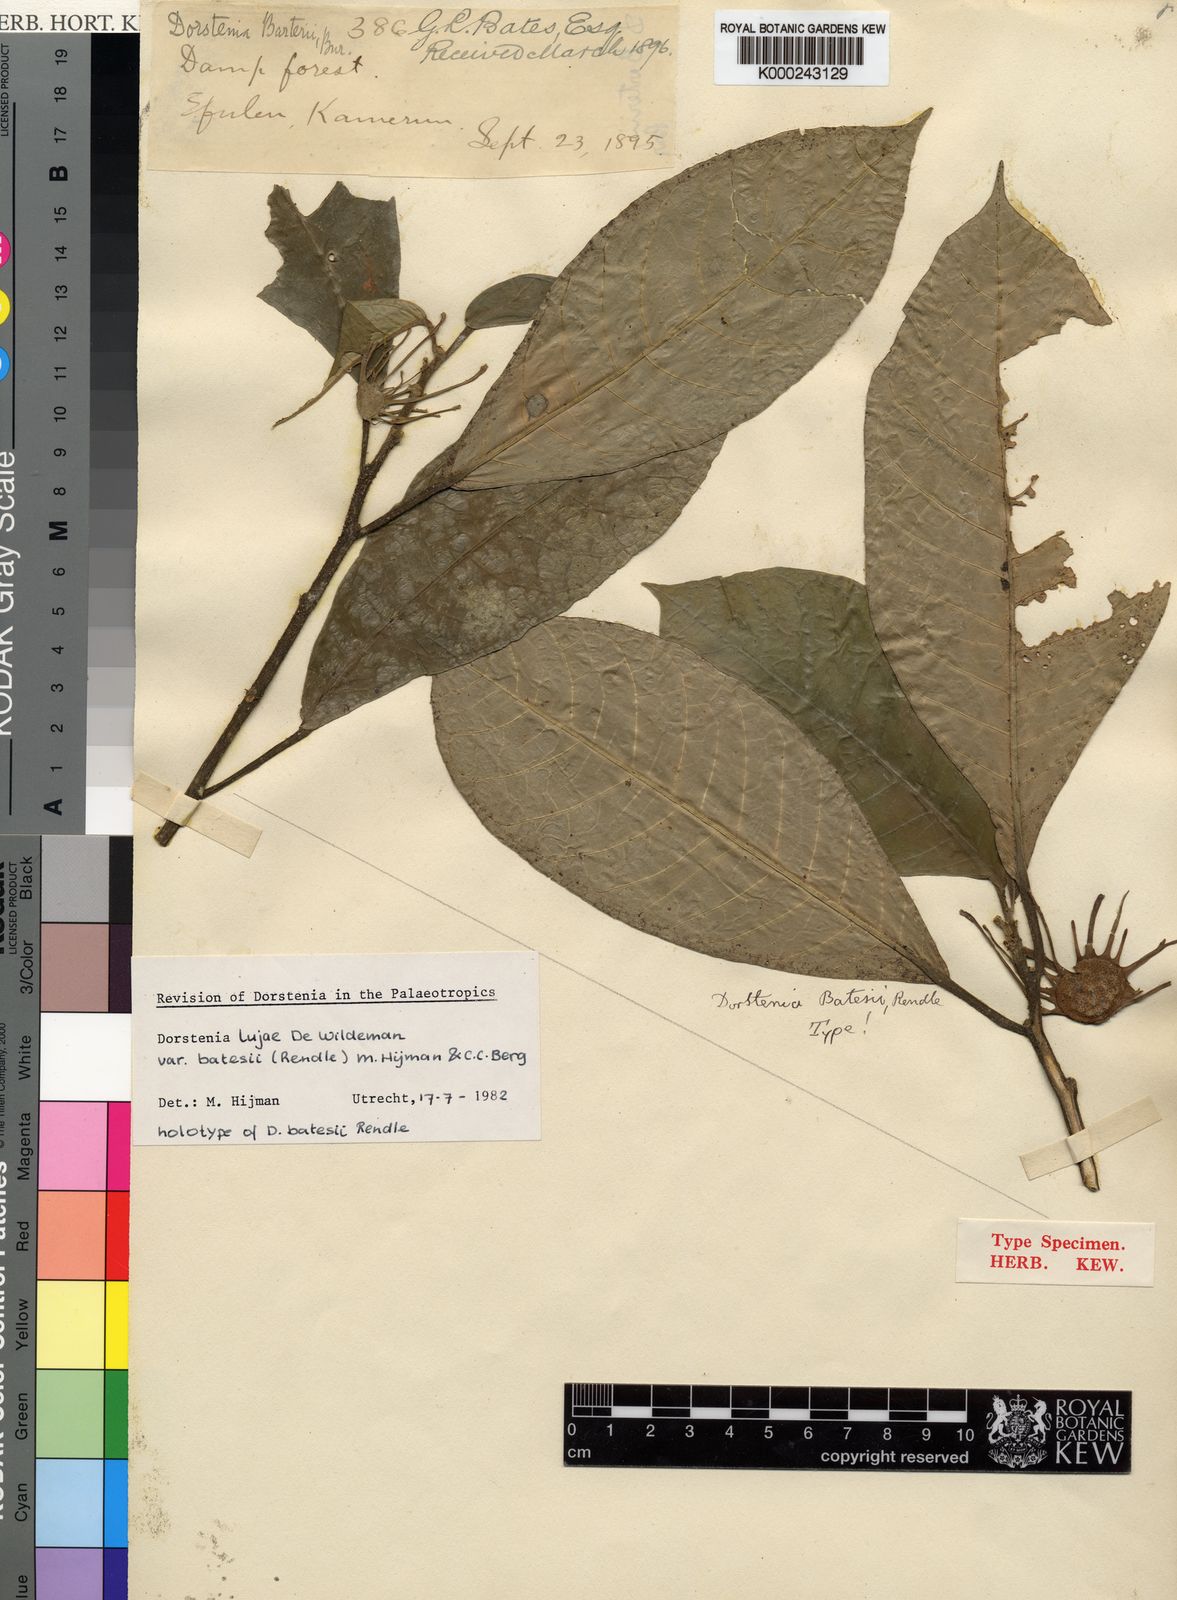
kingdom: Plantae
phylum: Tracheophyta
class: Magnoliopsida
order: Rosales
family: Moraceae
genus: Dorstenia
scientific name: Dorstenia lujae
